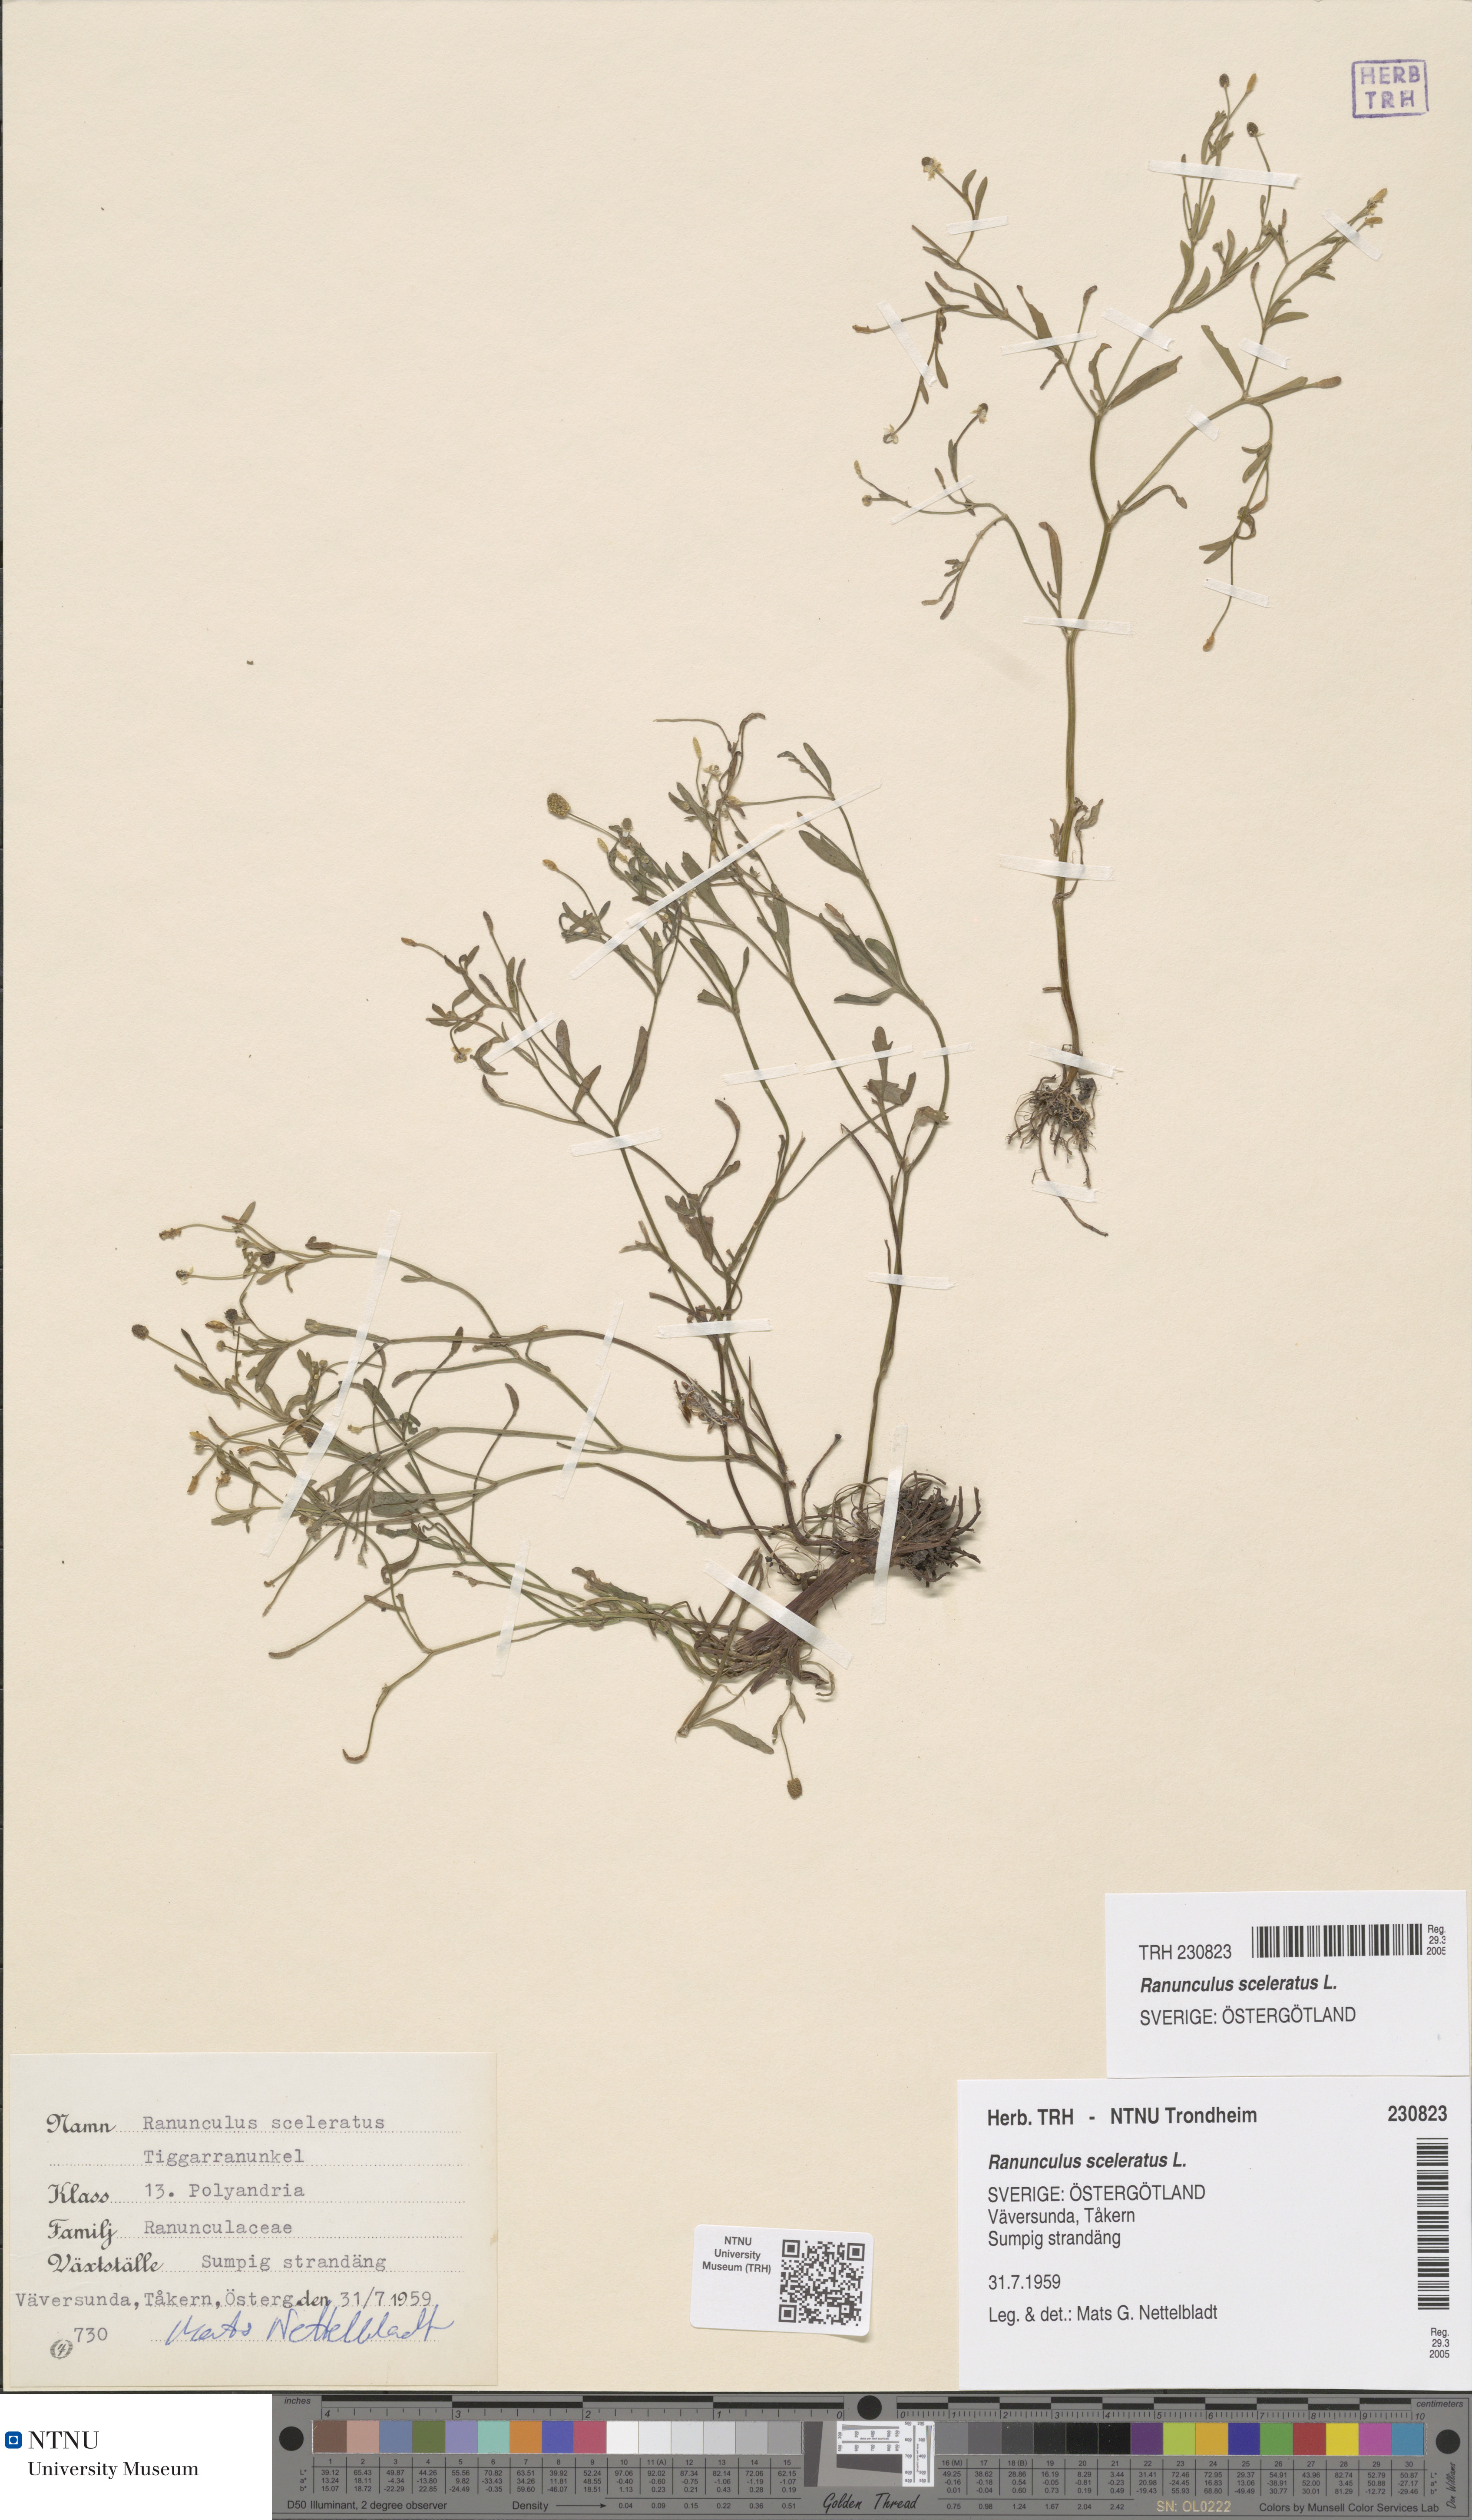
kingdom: Plantae
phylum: Tracheophyta
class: Magnoliopsida
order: Ranunculales
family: Ranunculaceae
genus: Ranunculus
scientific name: Ranunculus sceleratus
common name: Celery-leaved buttercup
